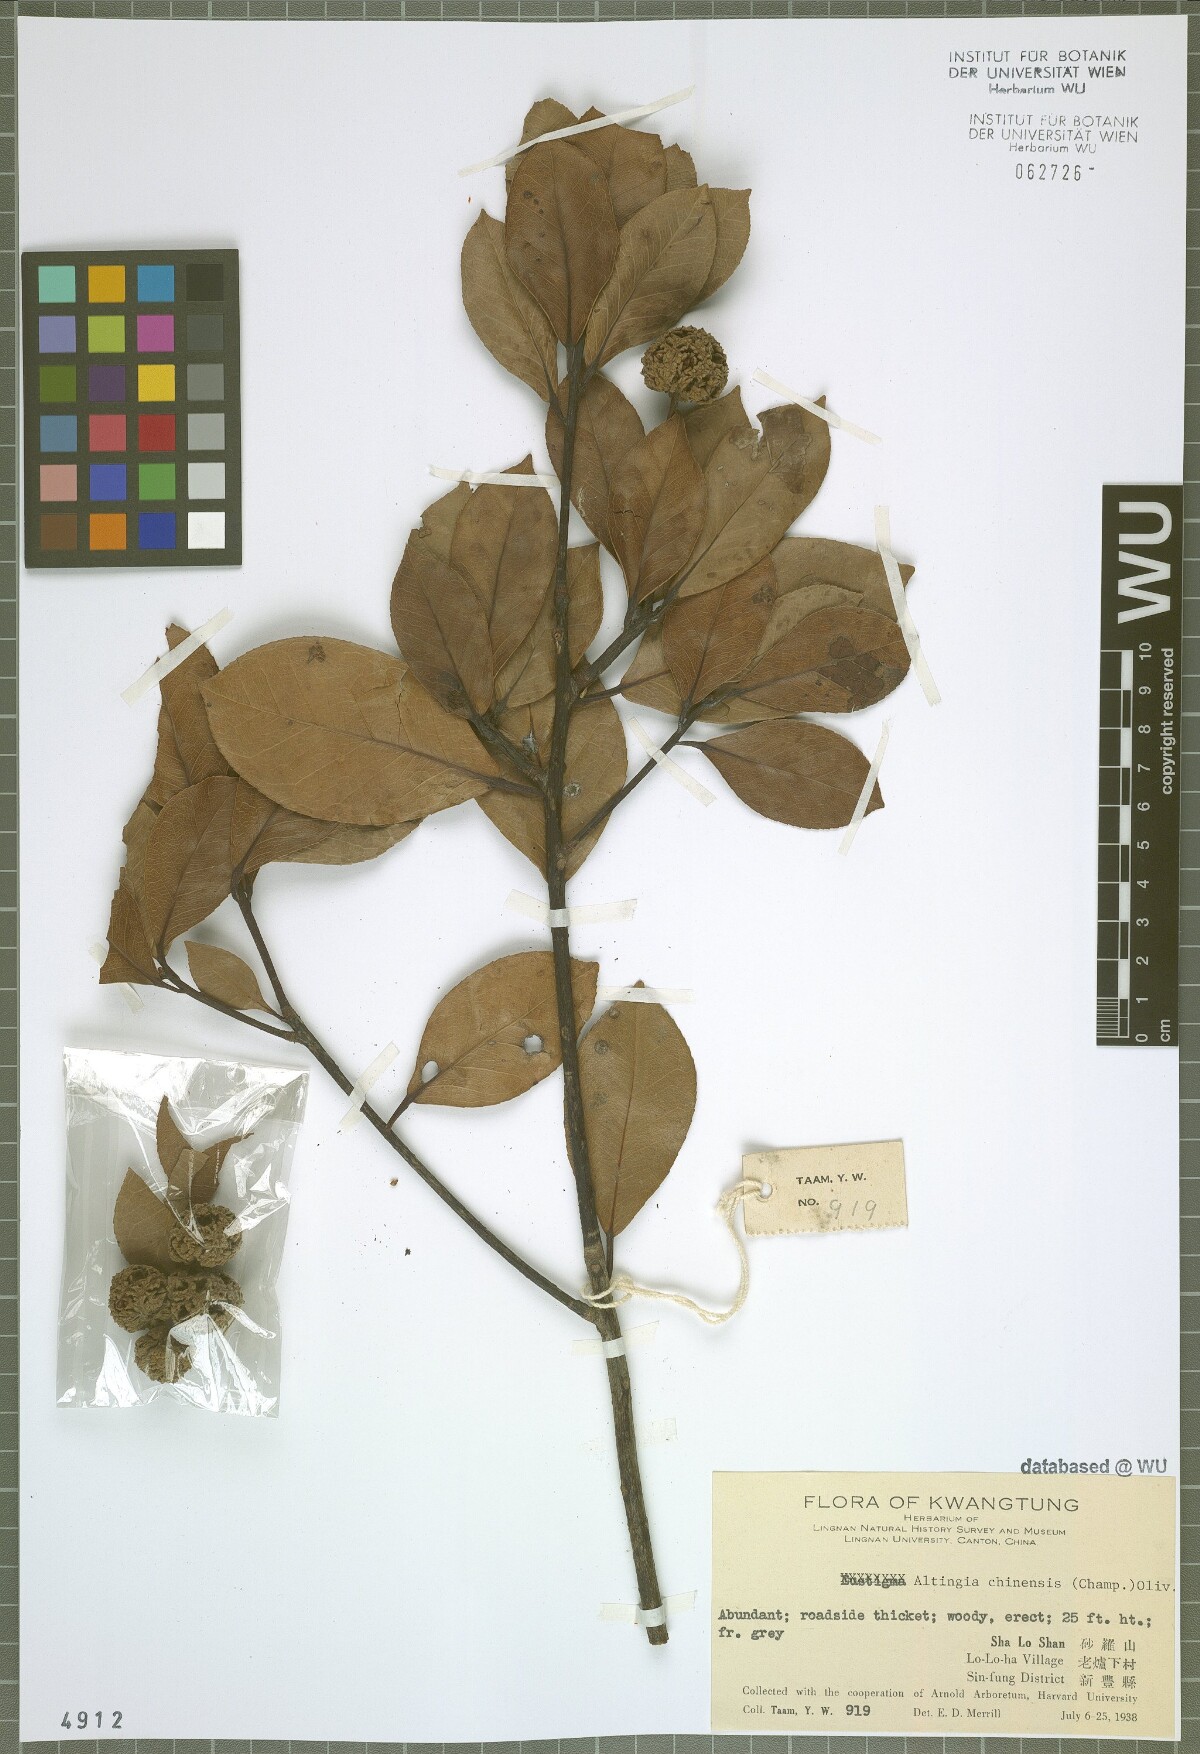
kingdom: Plantae
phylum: Tracheophyta
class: Magnoliopsida
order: Saxifragales
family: Altingiaceae
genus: Liquidambar
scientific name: Liquidambar chinensis
